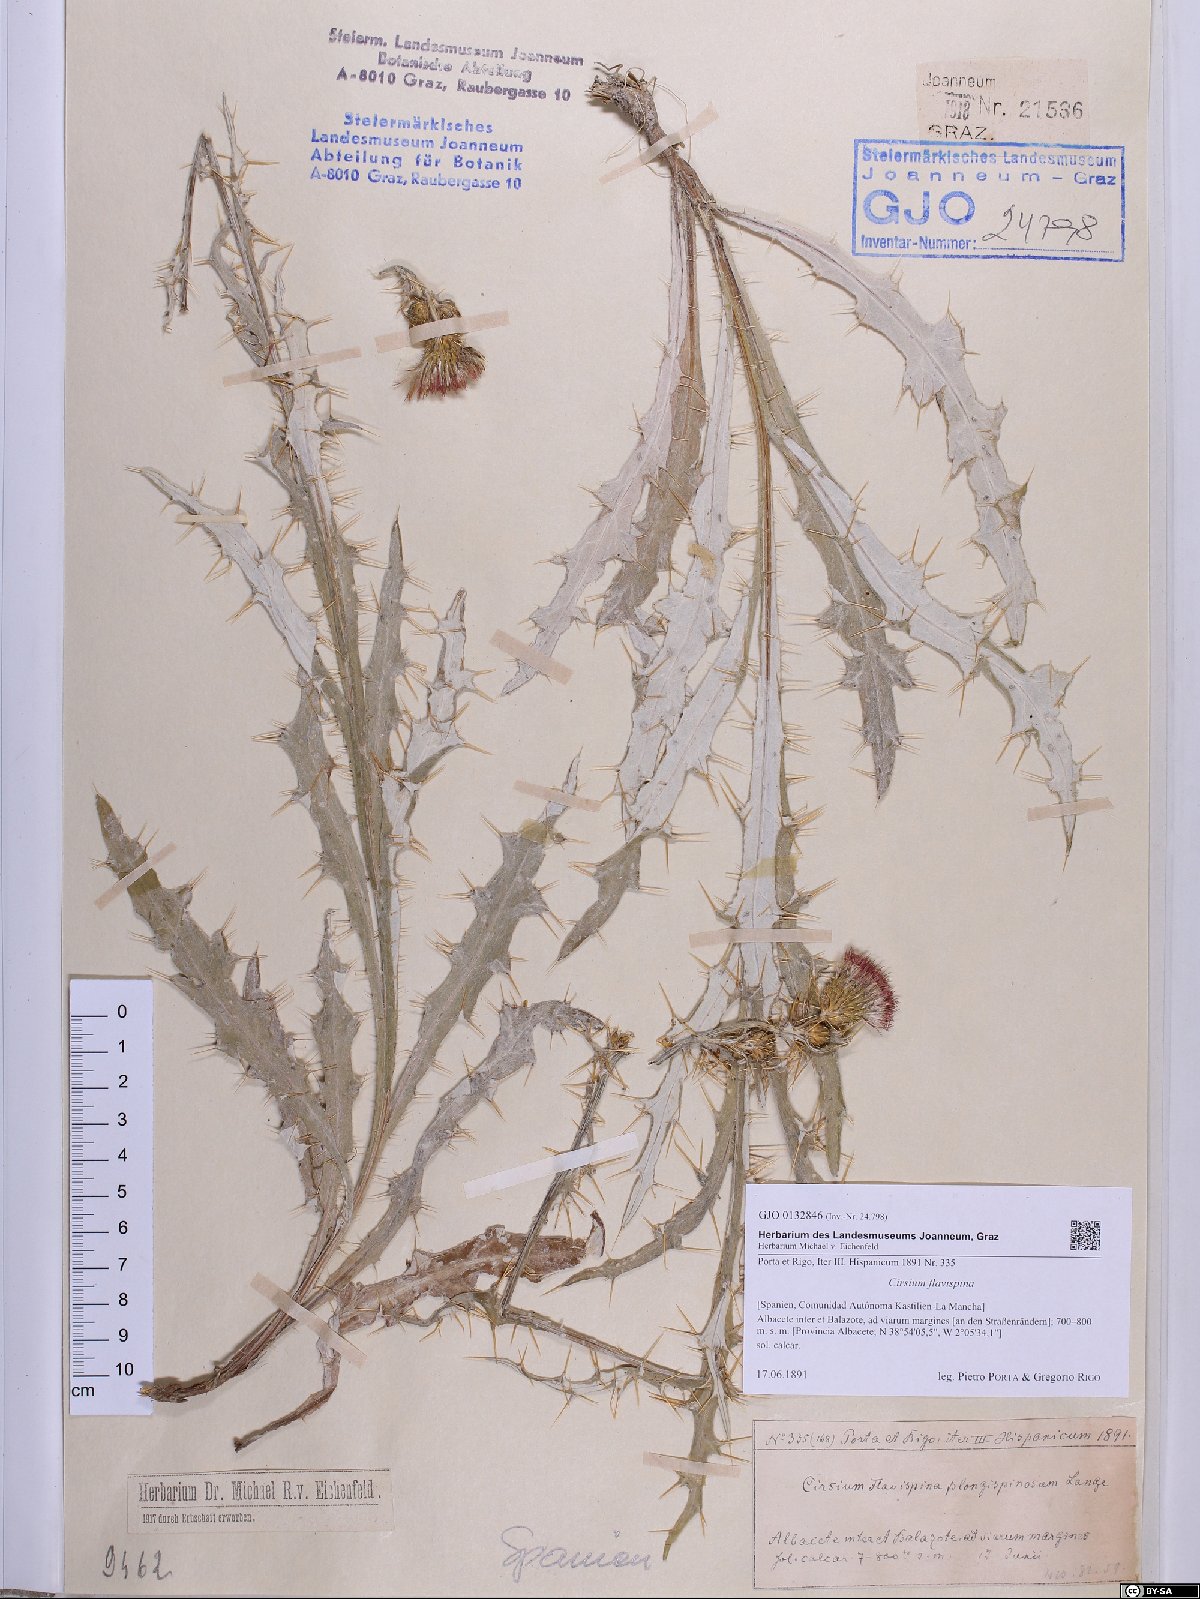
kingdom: Plantae
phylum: Tracheophyta
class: Magnoliopsida
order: Asterales
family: Asteraceae
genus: Cirsium
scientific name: Cirsium pyrenaicum
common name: Pyrenean thistle
